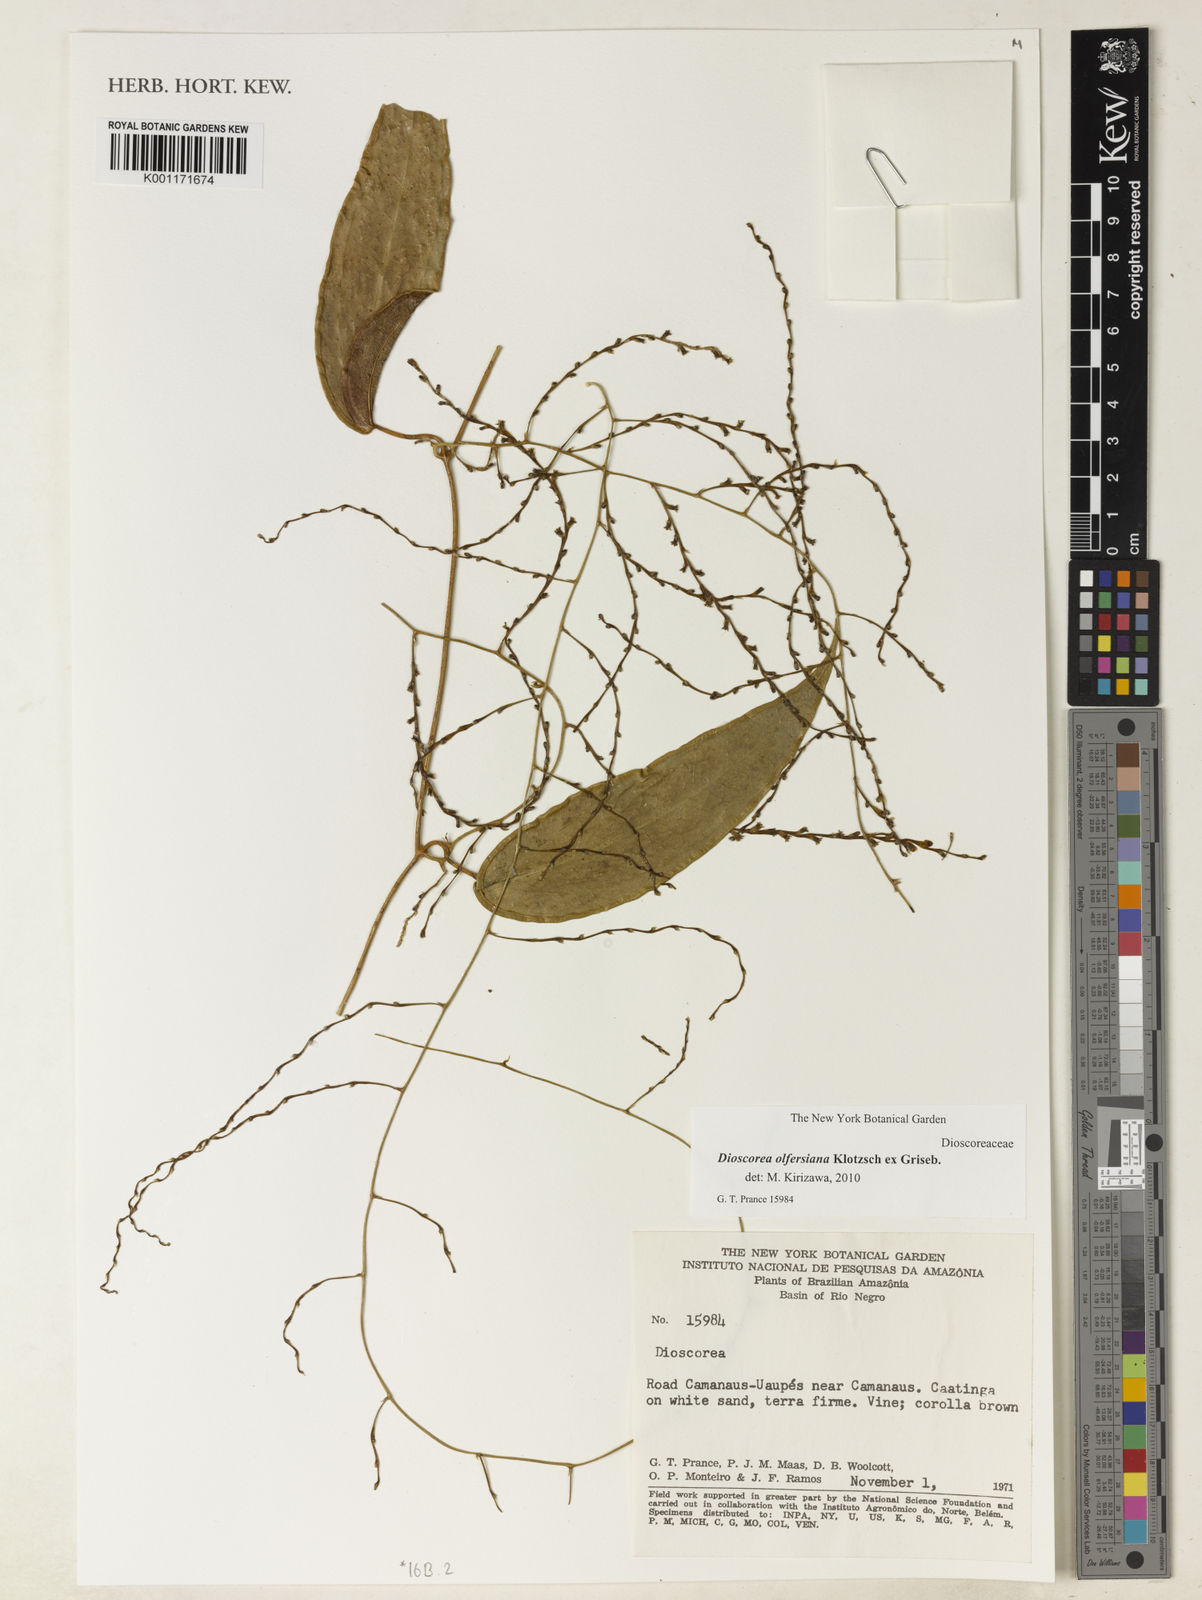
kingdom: Plantae
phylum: Tracheophyta
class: Liliopsida
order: Dioscoreales
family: Dioscoreaceae
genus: Dioscorea
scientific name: Dioscorea olfersiana
